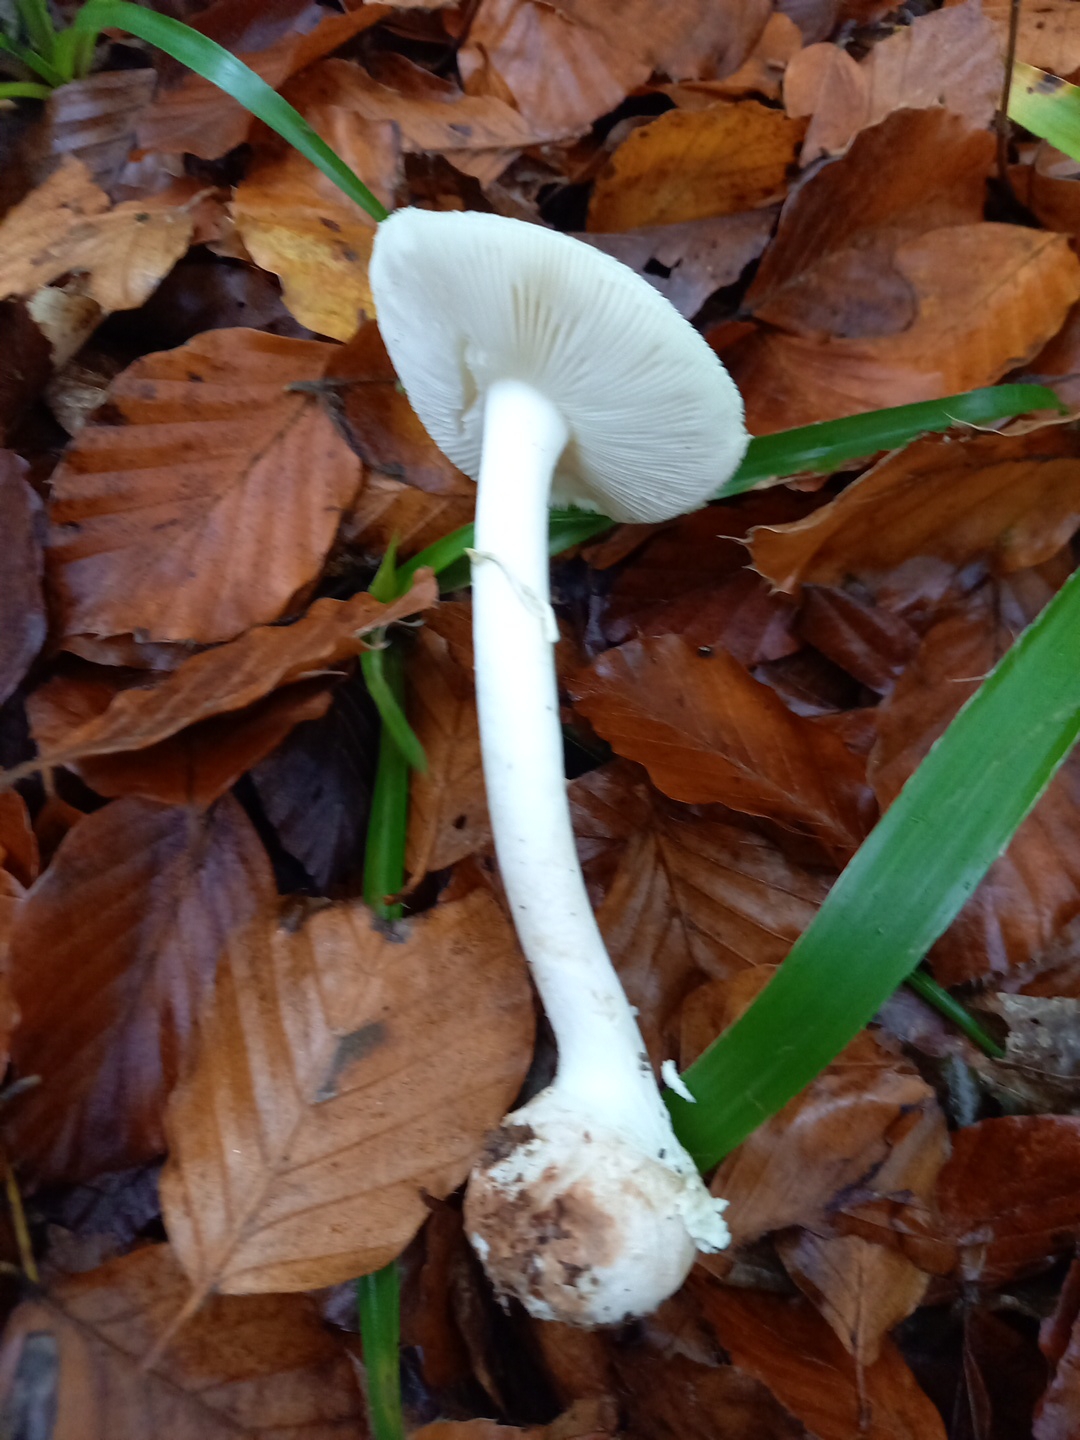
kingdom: Fungi
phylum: Basidiomycota
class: Agaricomycetes
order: Agaricales
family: Amanitaceae
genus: Amanita
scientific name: Amanita citrina
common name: kugleknoldet fluesvamp
